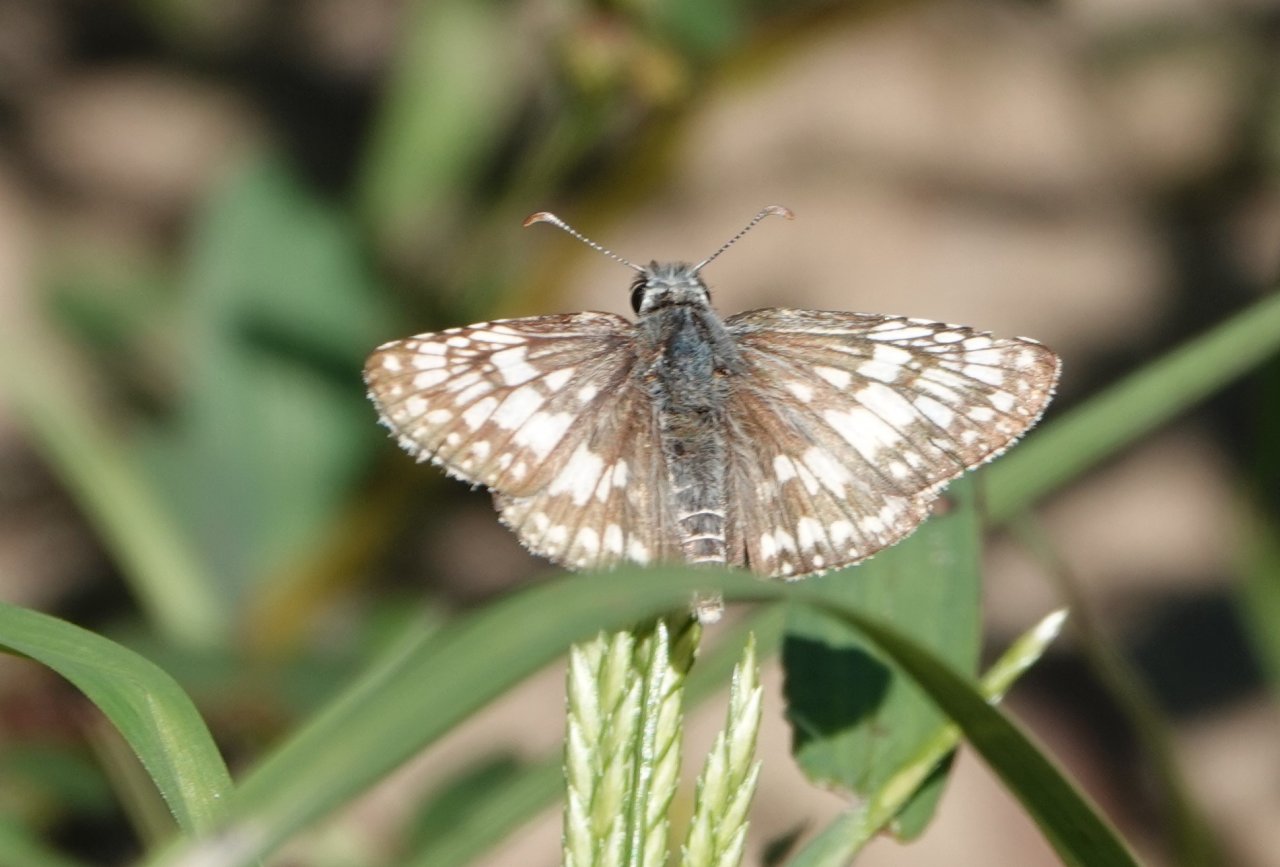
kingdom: Animalia
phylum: Arthropoda
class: Insecta
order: Lepidoptera
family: Hesperiidae
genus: Pyrgus
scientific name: Pyrgus oileus
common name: Tropical Checkered-Skipper
